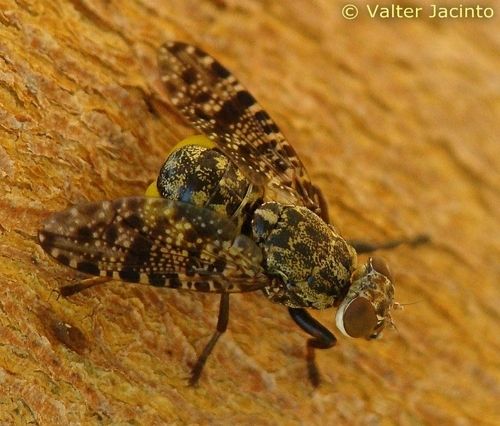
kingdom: Animalia
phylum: Arthropoda
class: Insecta
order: Diptera
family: Platystomatidae
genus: Platystoma
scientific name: Platystoma lugubre
